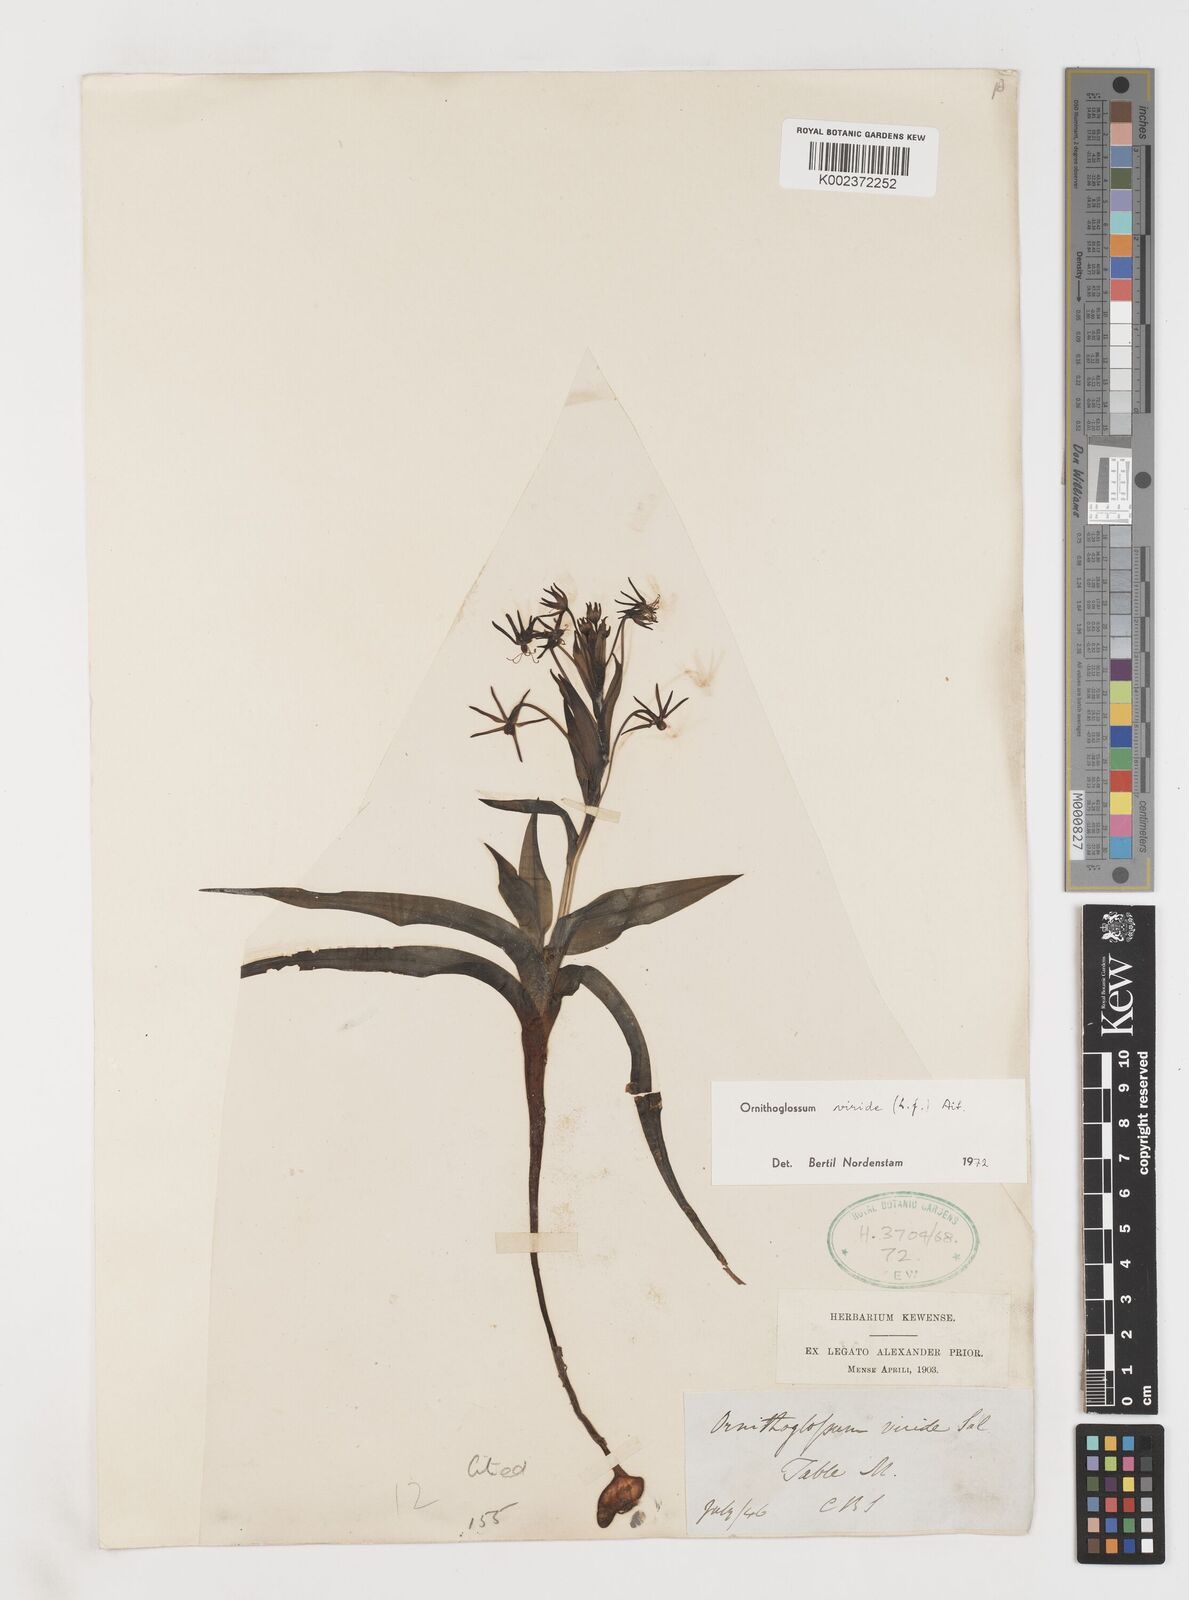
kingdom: Plantae
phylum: Tracheophyta
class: Liliopsida
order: Liliales
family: Colchicaceae
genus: Ornithoglossum
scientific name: Ornithoglossum viride
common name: Cape poison-onion
